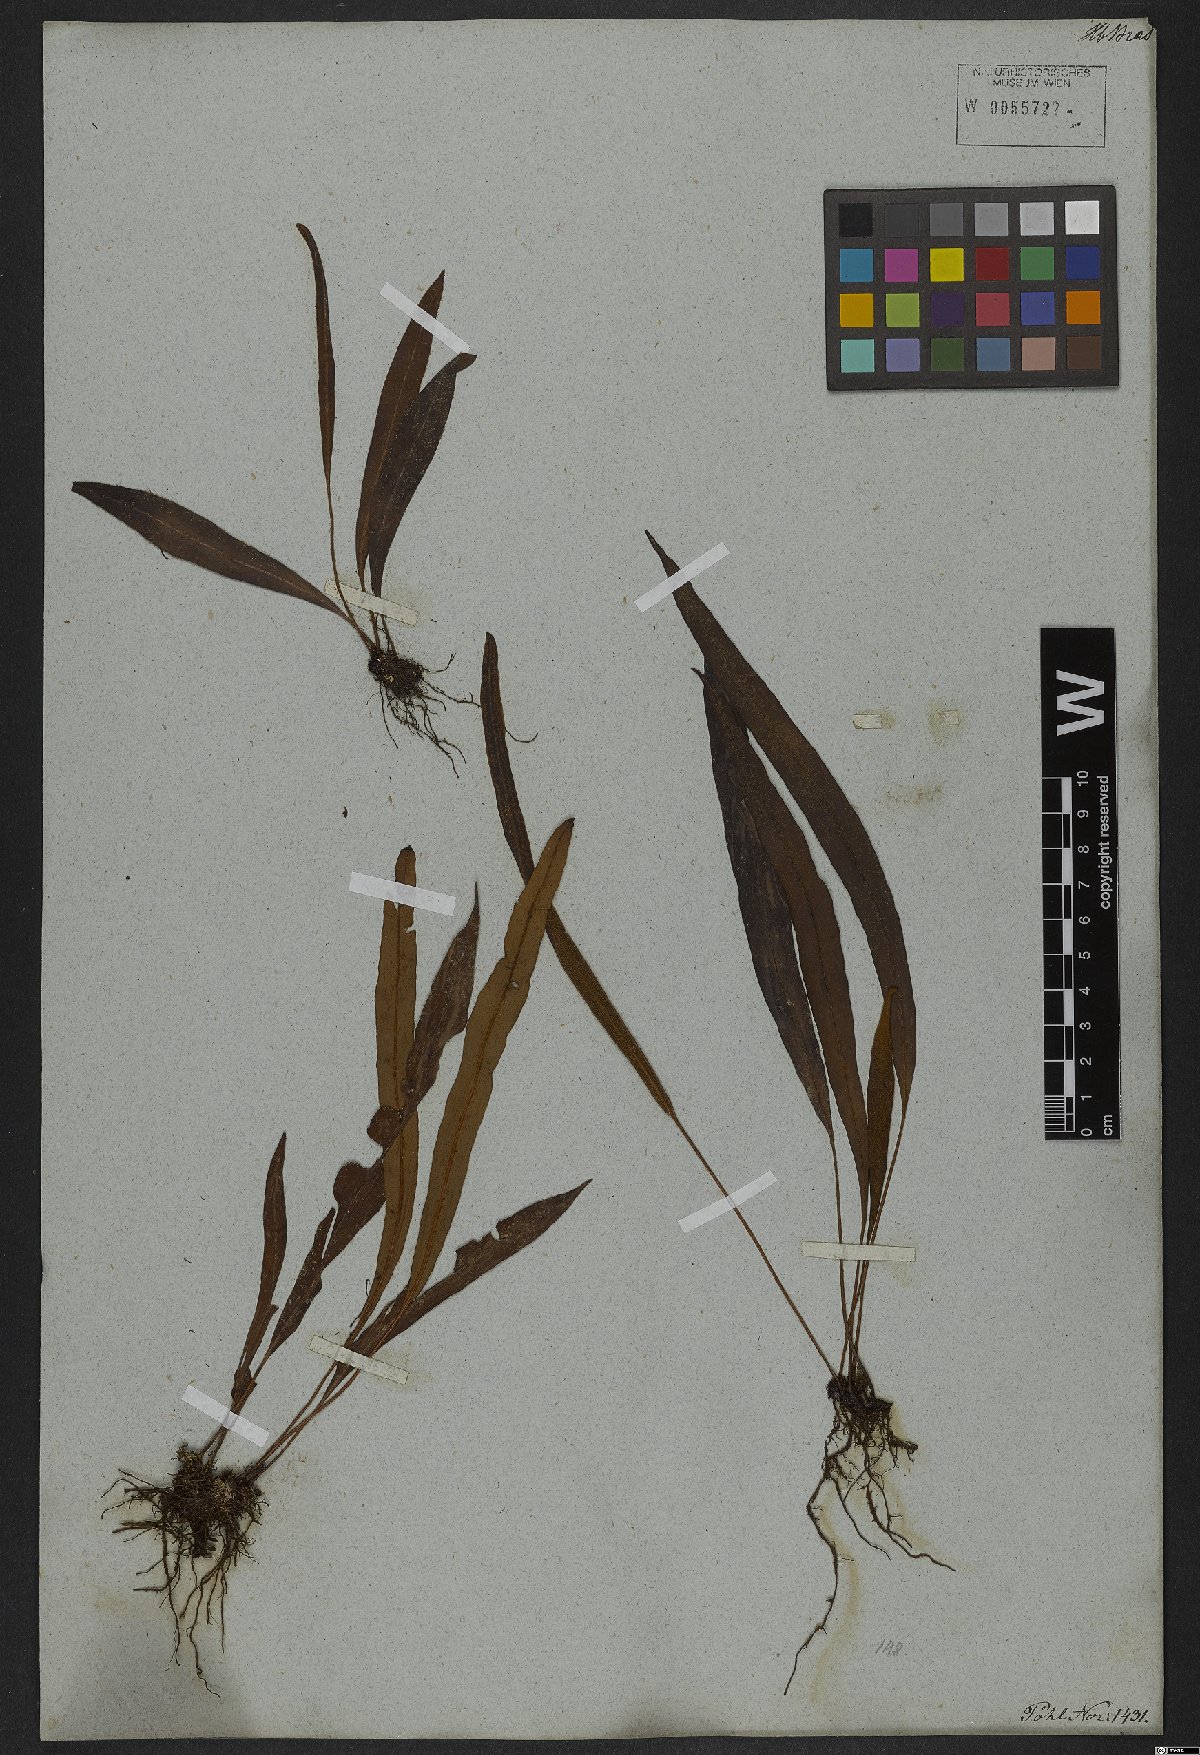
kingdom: Plantae
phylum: Tracheophyta
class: Polypodiopsida
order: Polypodiales
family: Dryopteridaceae
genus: Elaphoglossum
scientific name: Elaphoglossum petiolatum
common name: Graceful tonguefern
